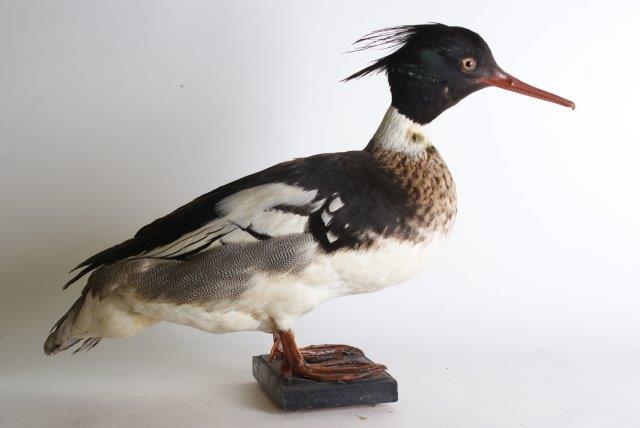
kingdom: Animalia
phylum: Chordata
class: Aves
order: Anseriformes
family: Anatidae
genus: Mergus
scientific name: Mergus serrator
